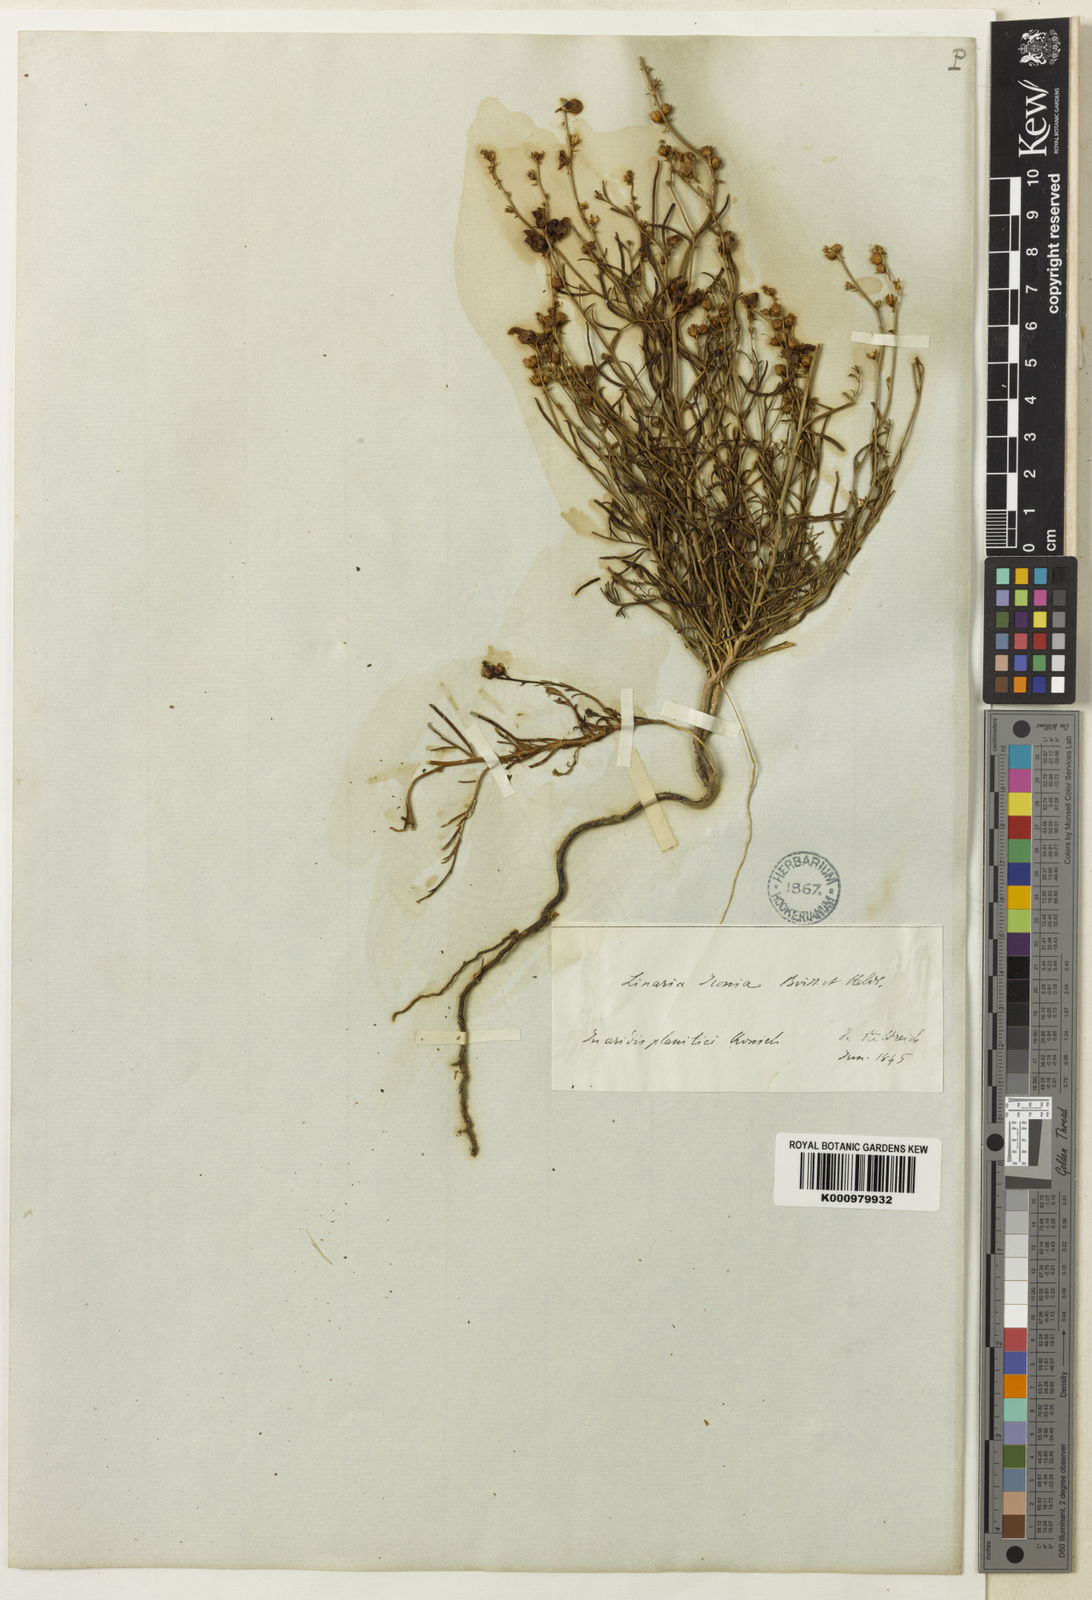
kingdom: Plantae
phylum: Tracheophyta
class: Magnoliopsida
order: Lamiales
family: Plantaginaceae
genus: Linaria
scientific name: Linaria iconia
